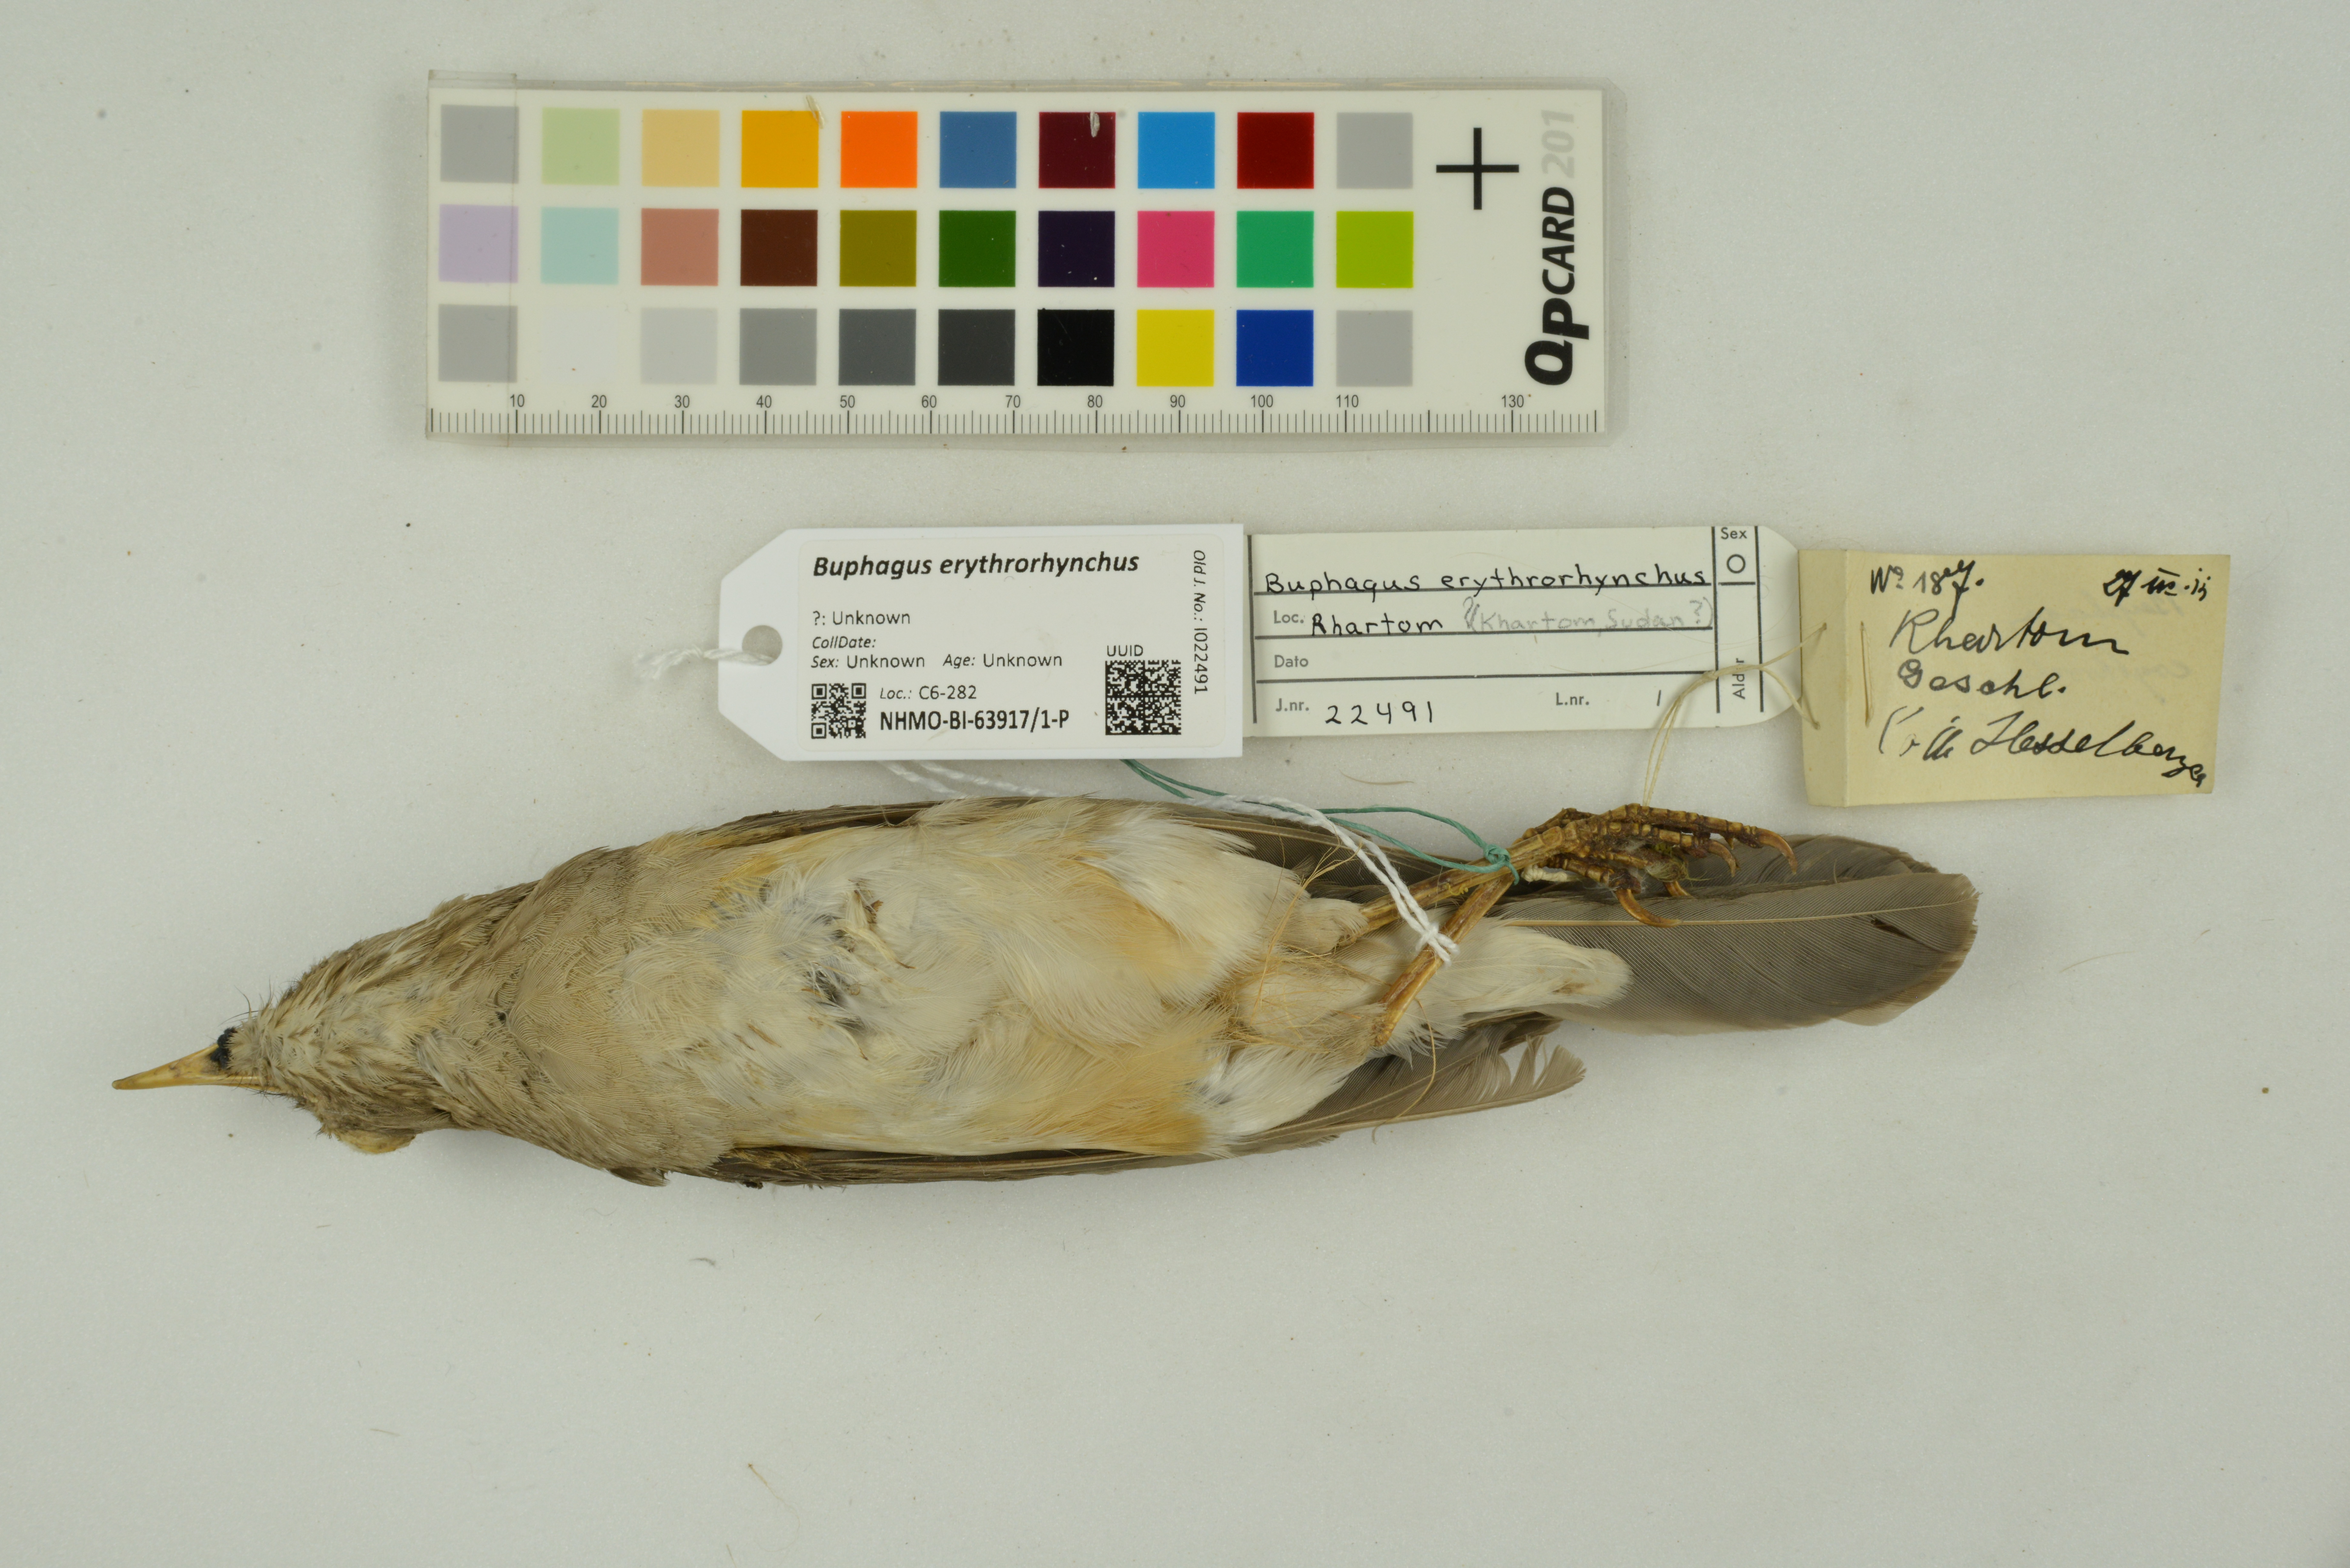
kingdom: Animalia
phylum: Chordata
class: Aves
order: Passeriformes
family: Buphagidae
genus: Buphagus
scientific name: Buphagus erythrorhynchus
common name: Red-billed oxpecker
